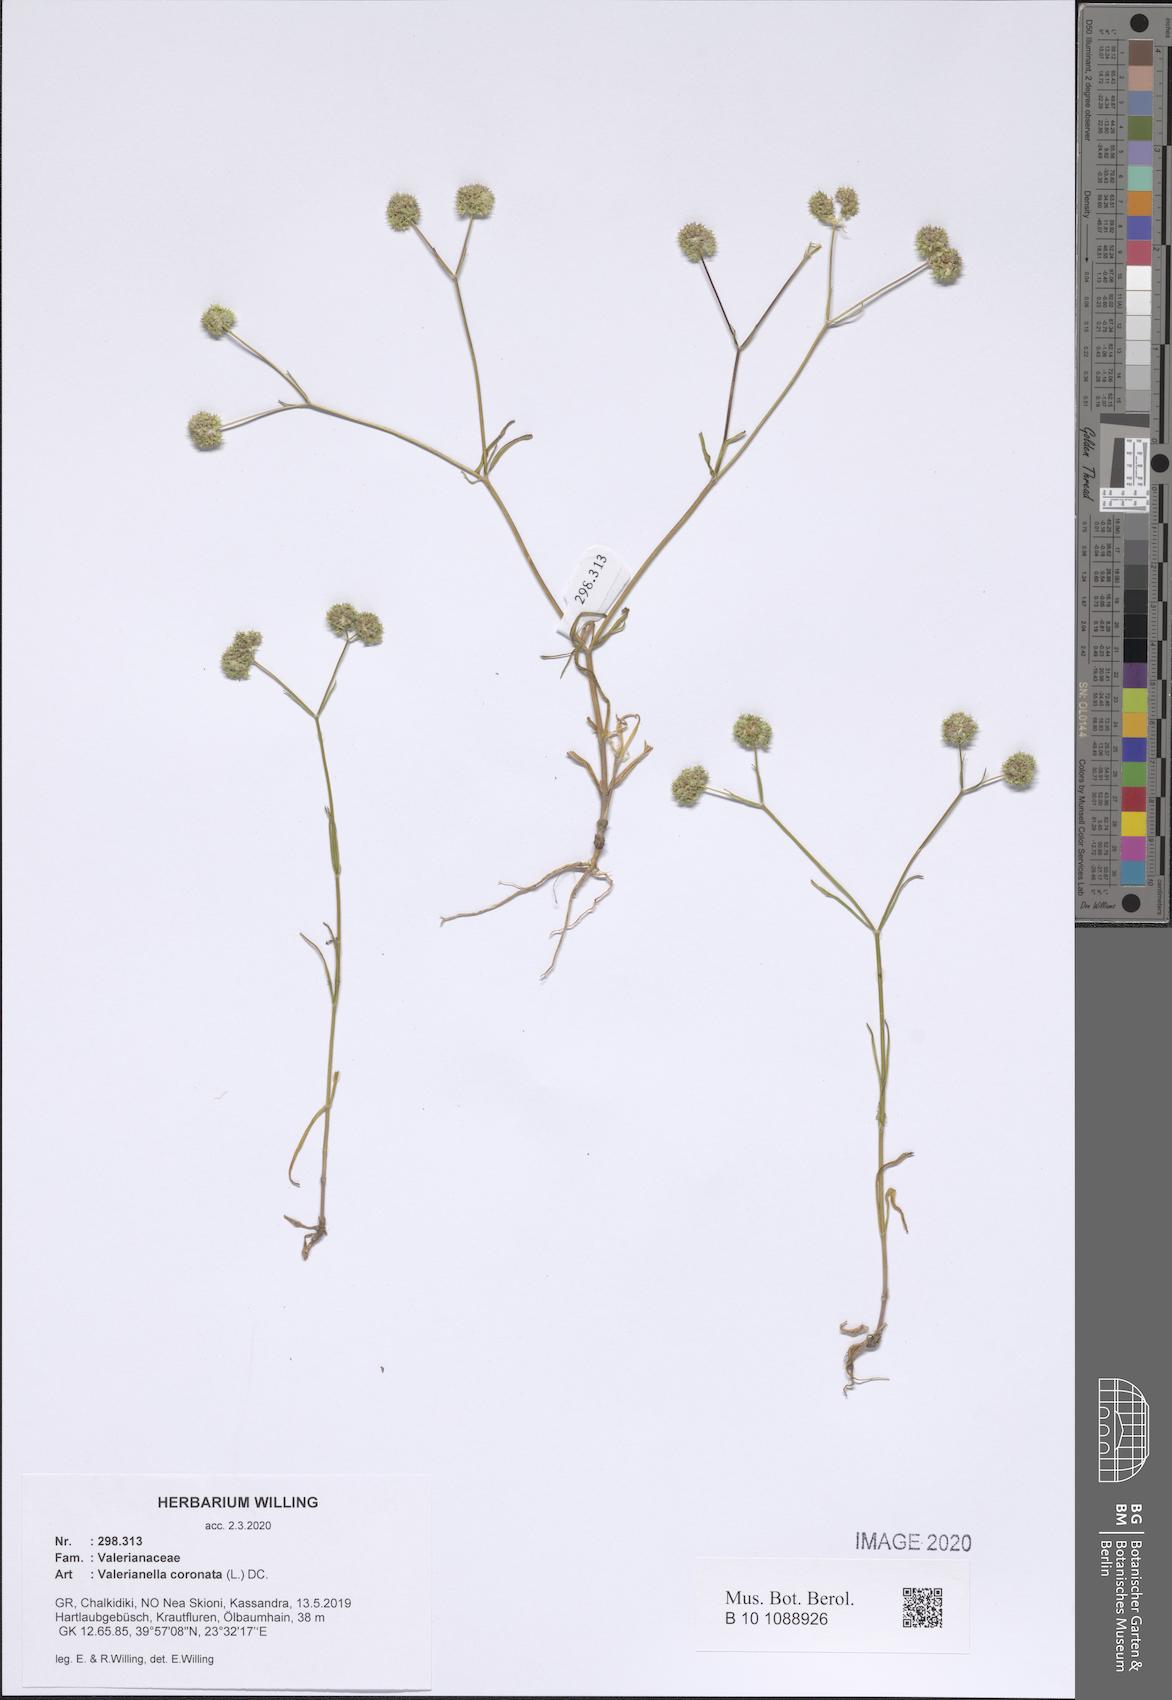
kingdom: Plantae
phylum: Tracheophyta
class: Magnoliopsida
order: Dipsacales
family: Caprifoliaceae
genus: Valerianella
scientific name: Valerianella coronata
